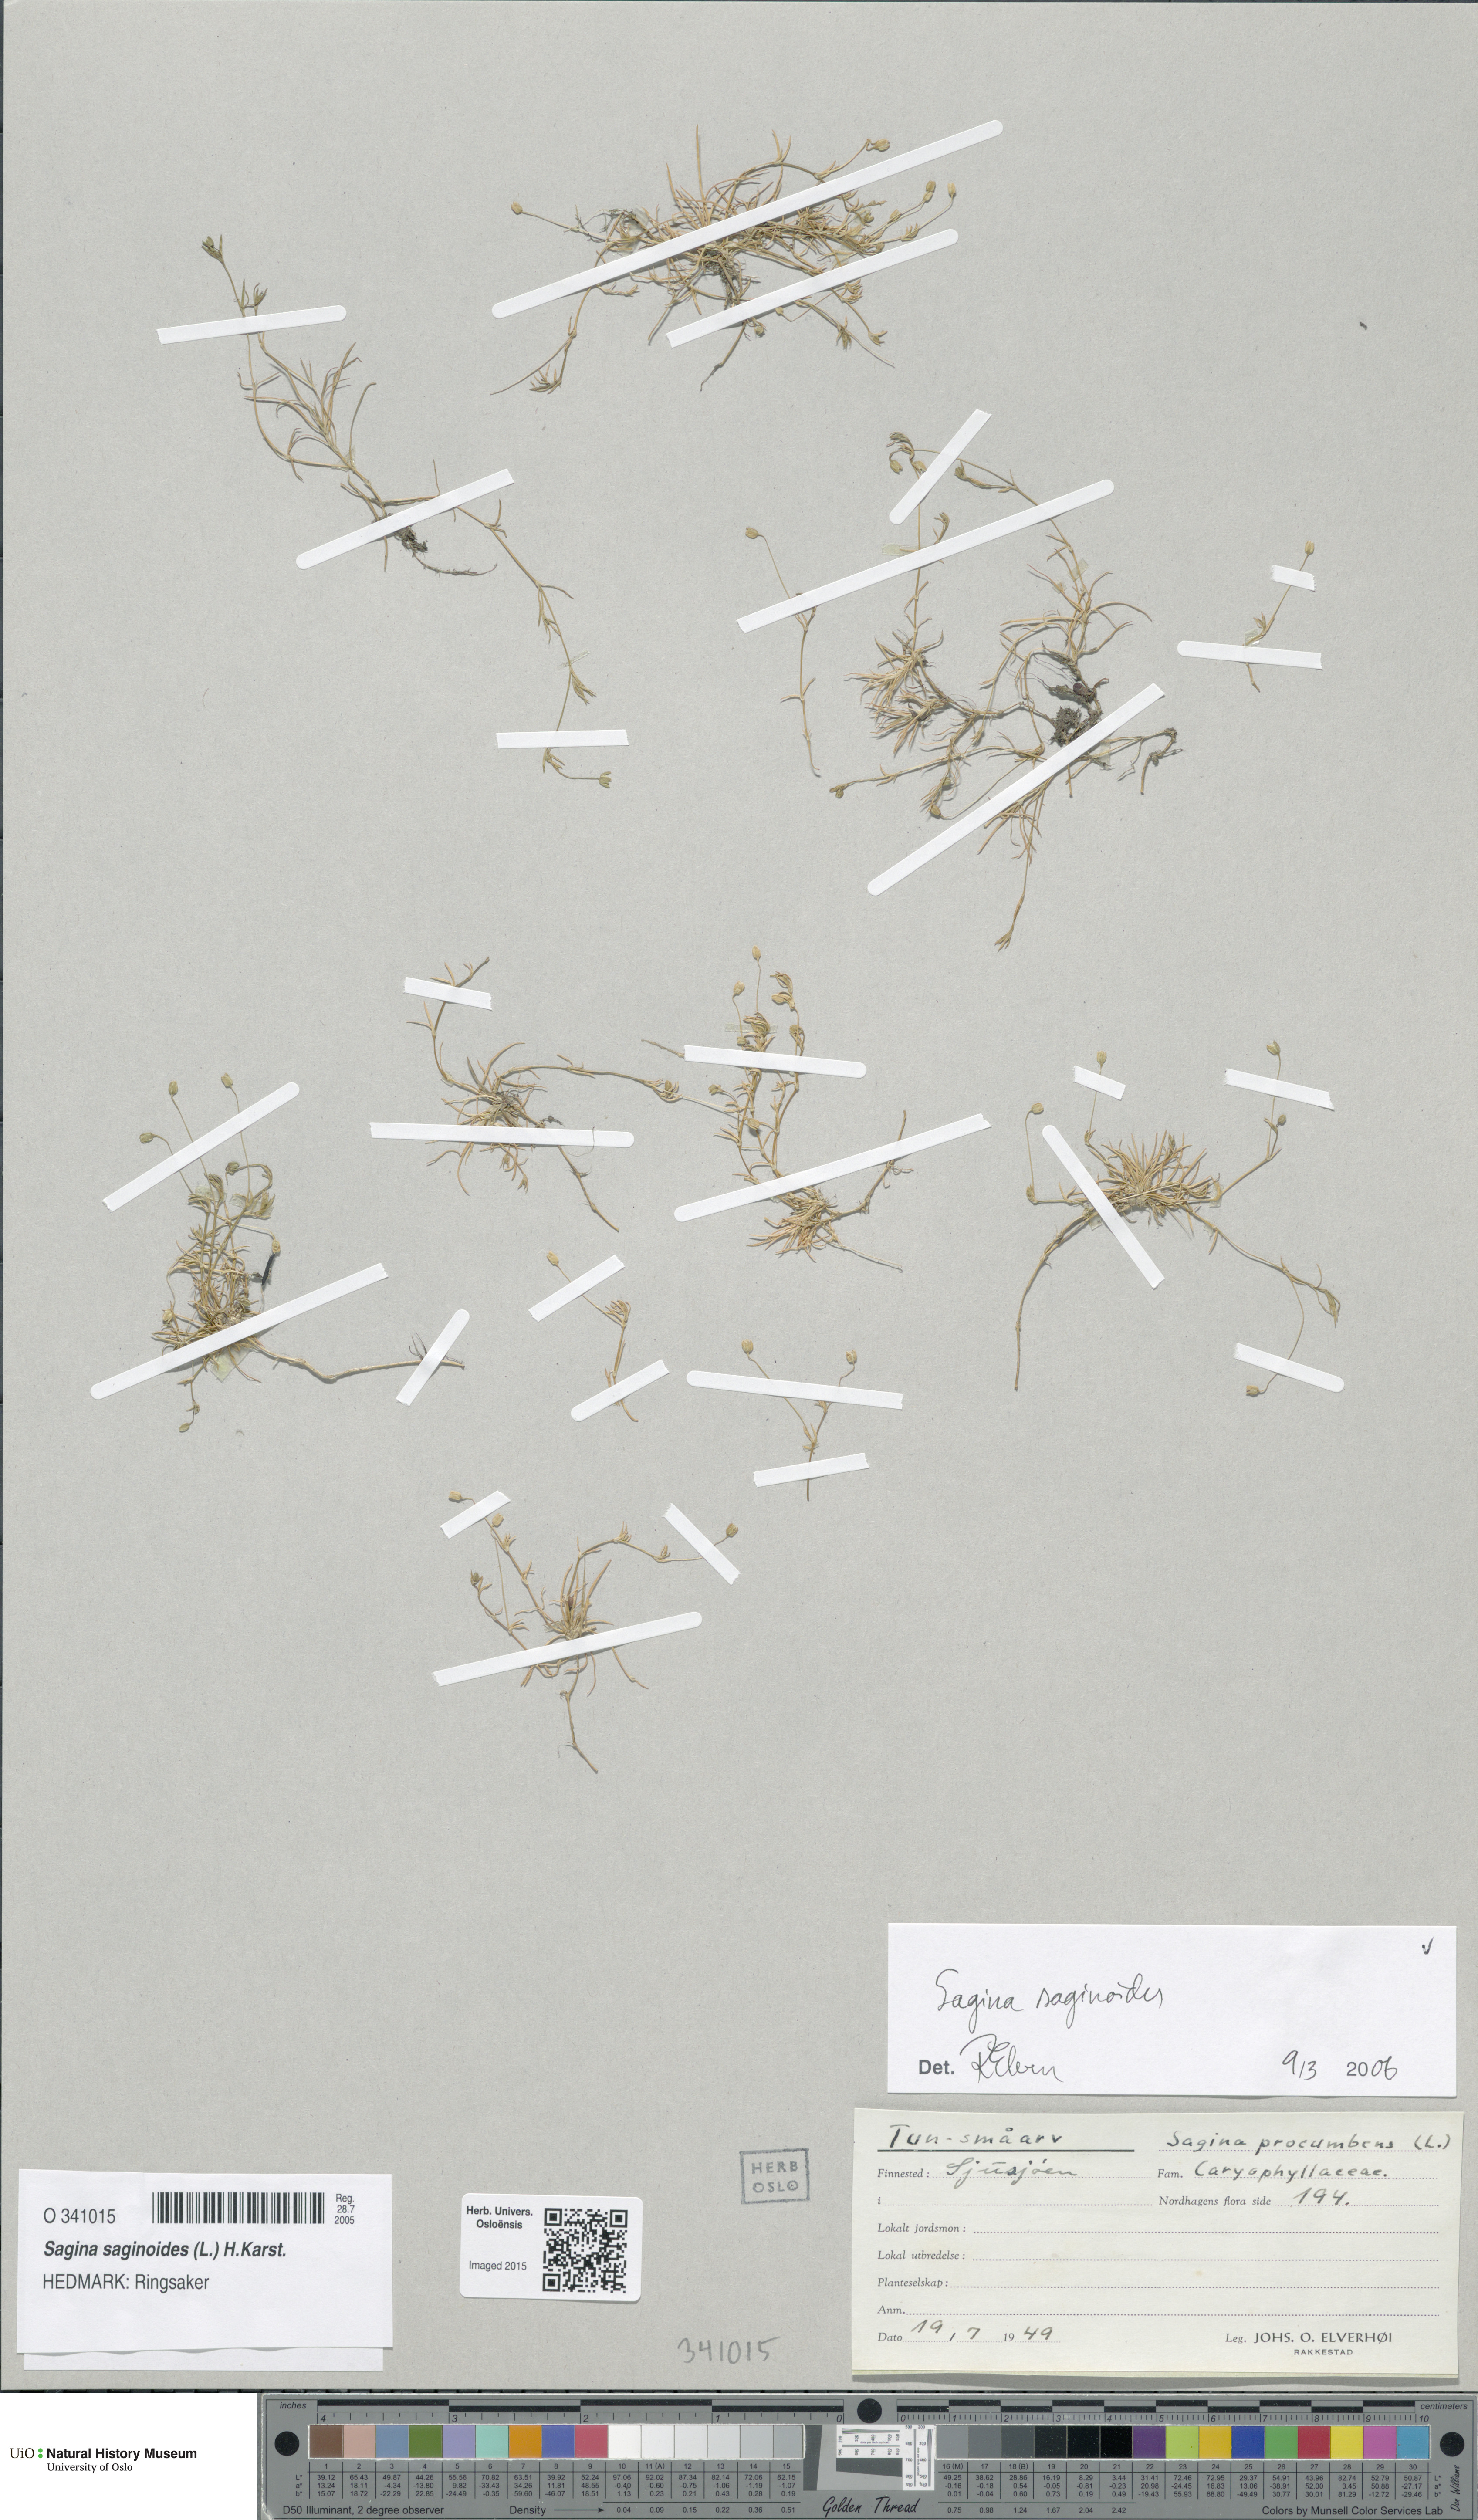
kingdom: Plantae
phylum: Tracheophyta
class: Magnoliopsida
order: Caryophyllales
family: Caryophyllaceae
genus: Sagina
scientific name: Sagina saginoides
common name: Alpine pearlwort
